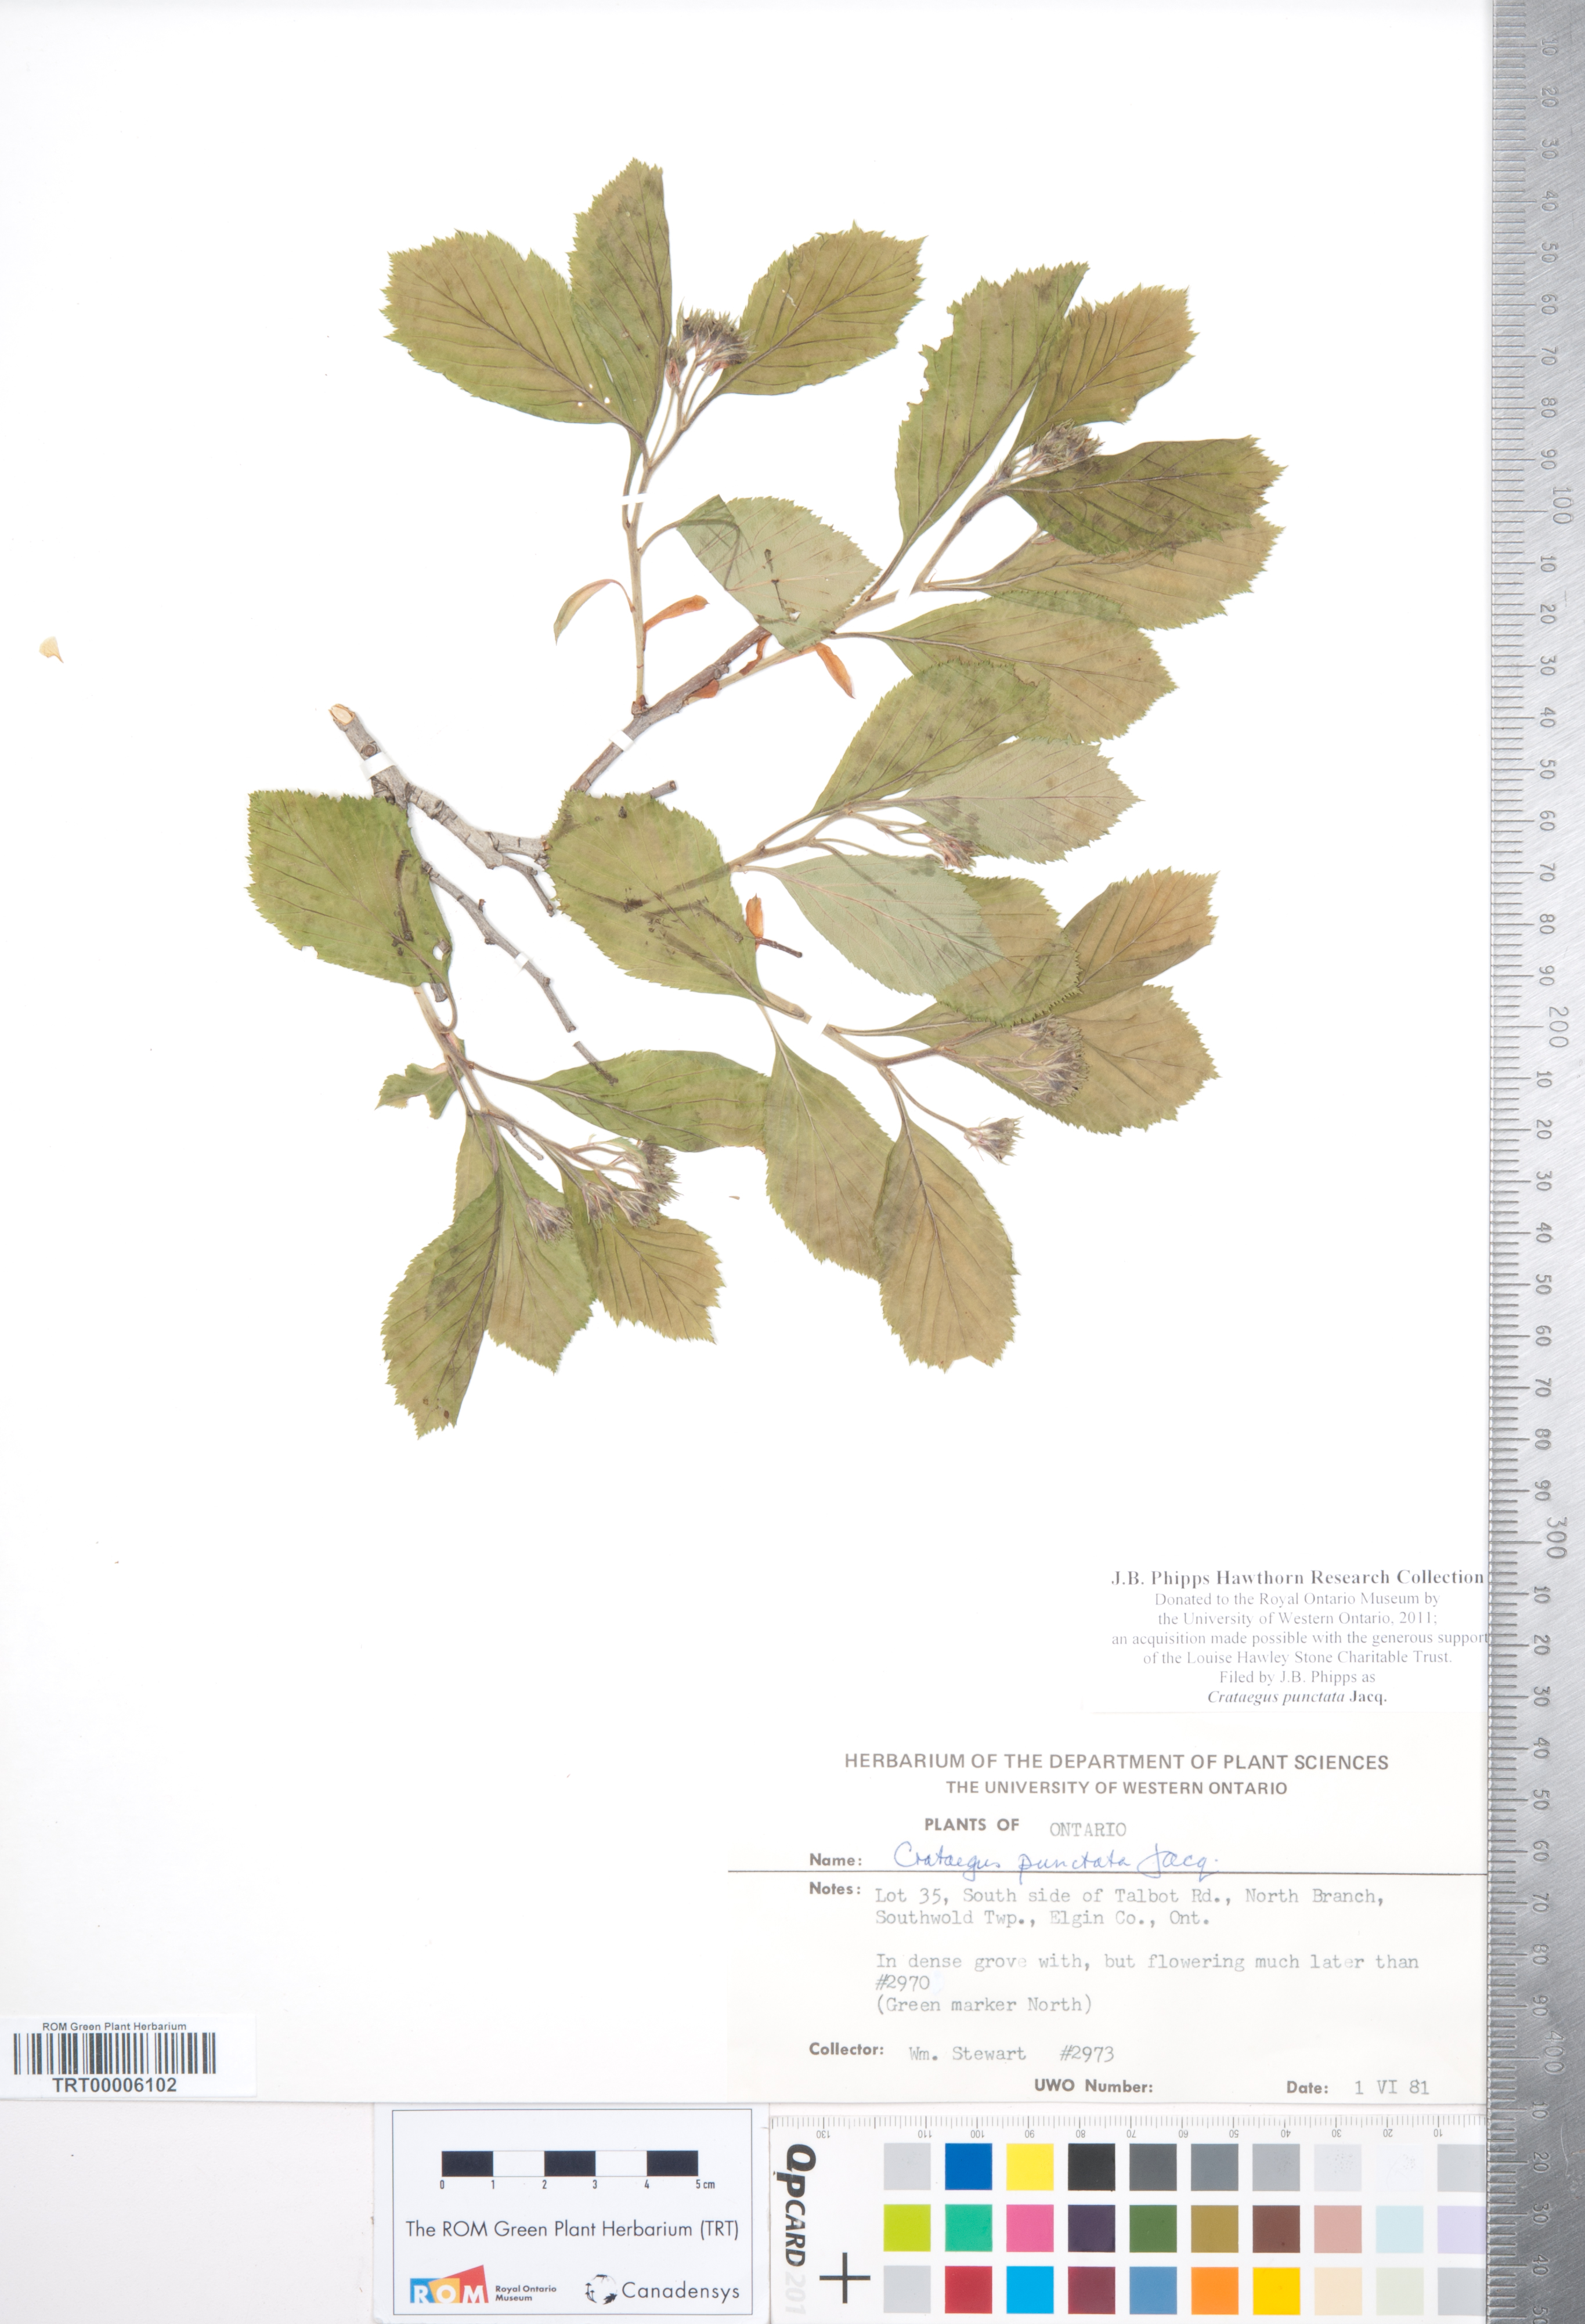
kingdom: Plantae
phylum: Tracheophyta
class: Magnoliopsida
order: Rosales
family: Rosaceae
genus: Crataegus
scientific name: Crataegus punctata
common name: Dotted hawthorn
